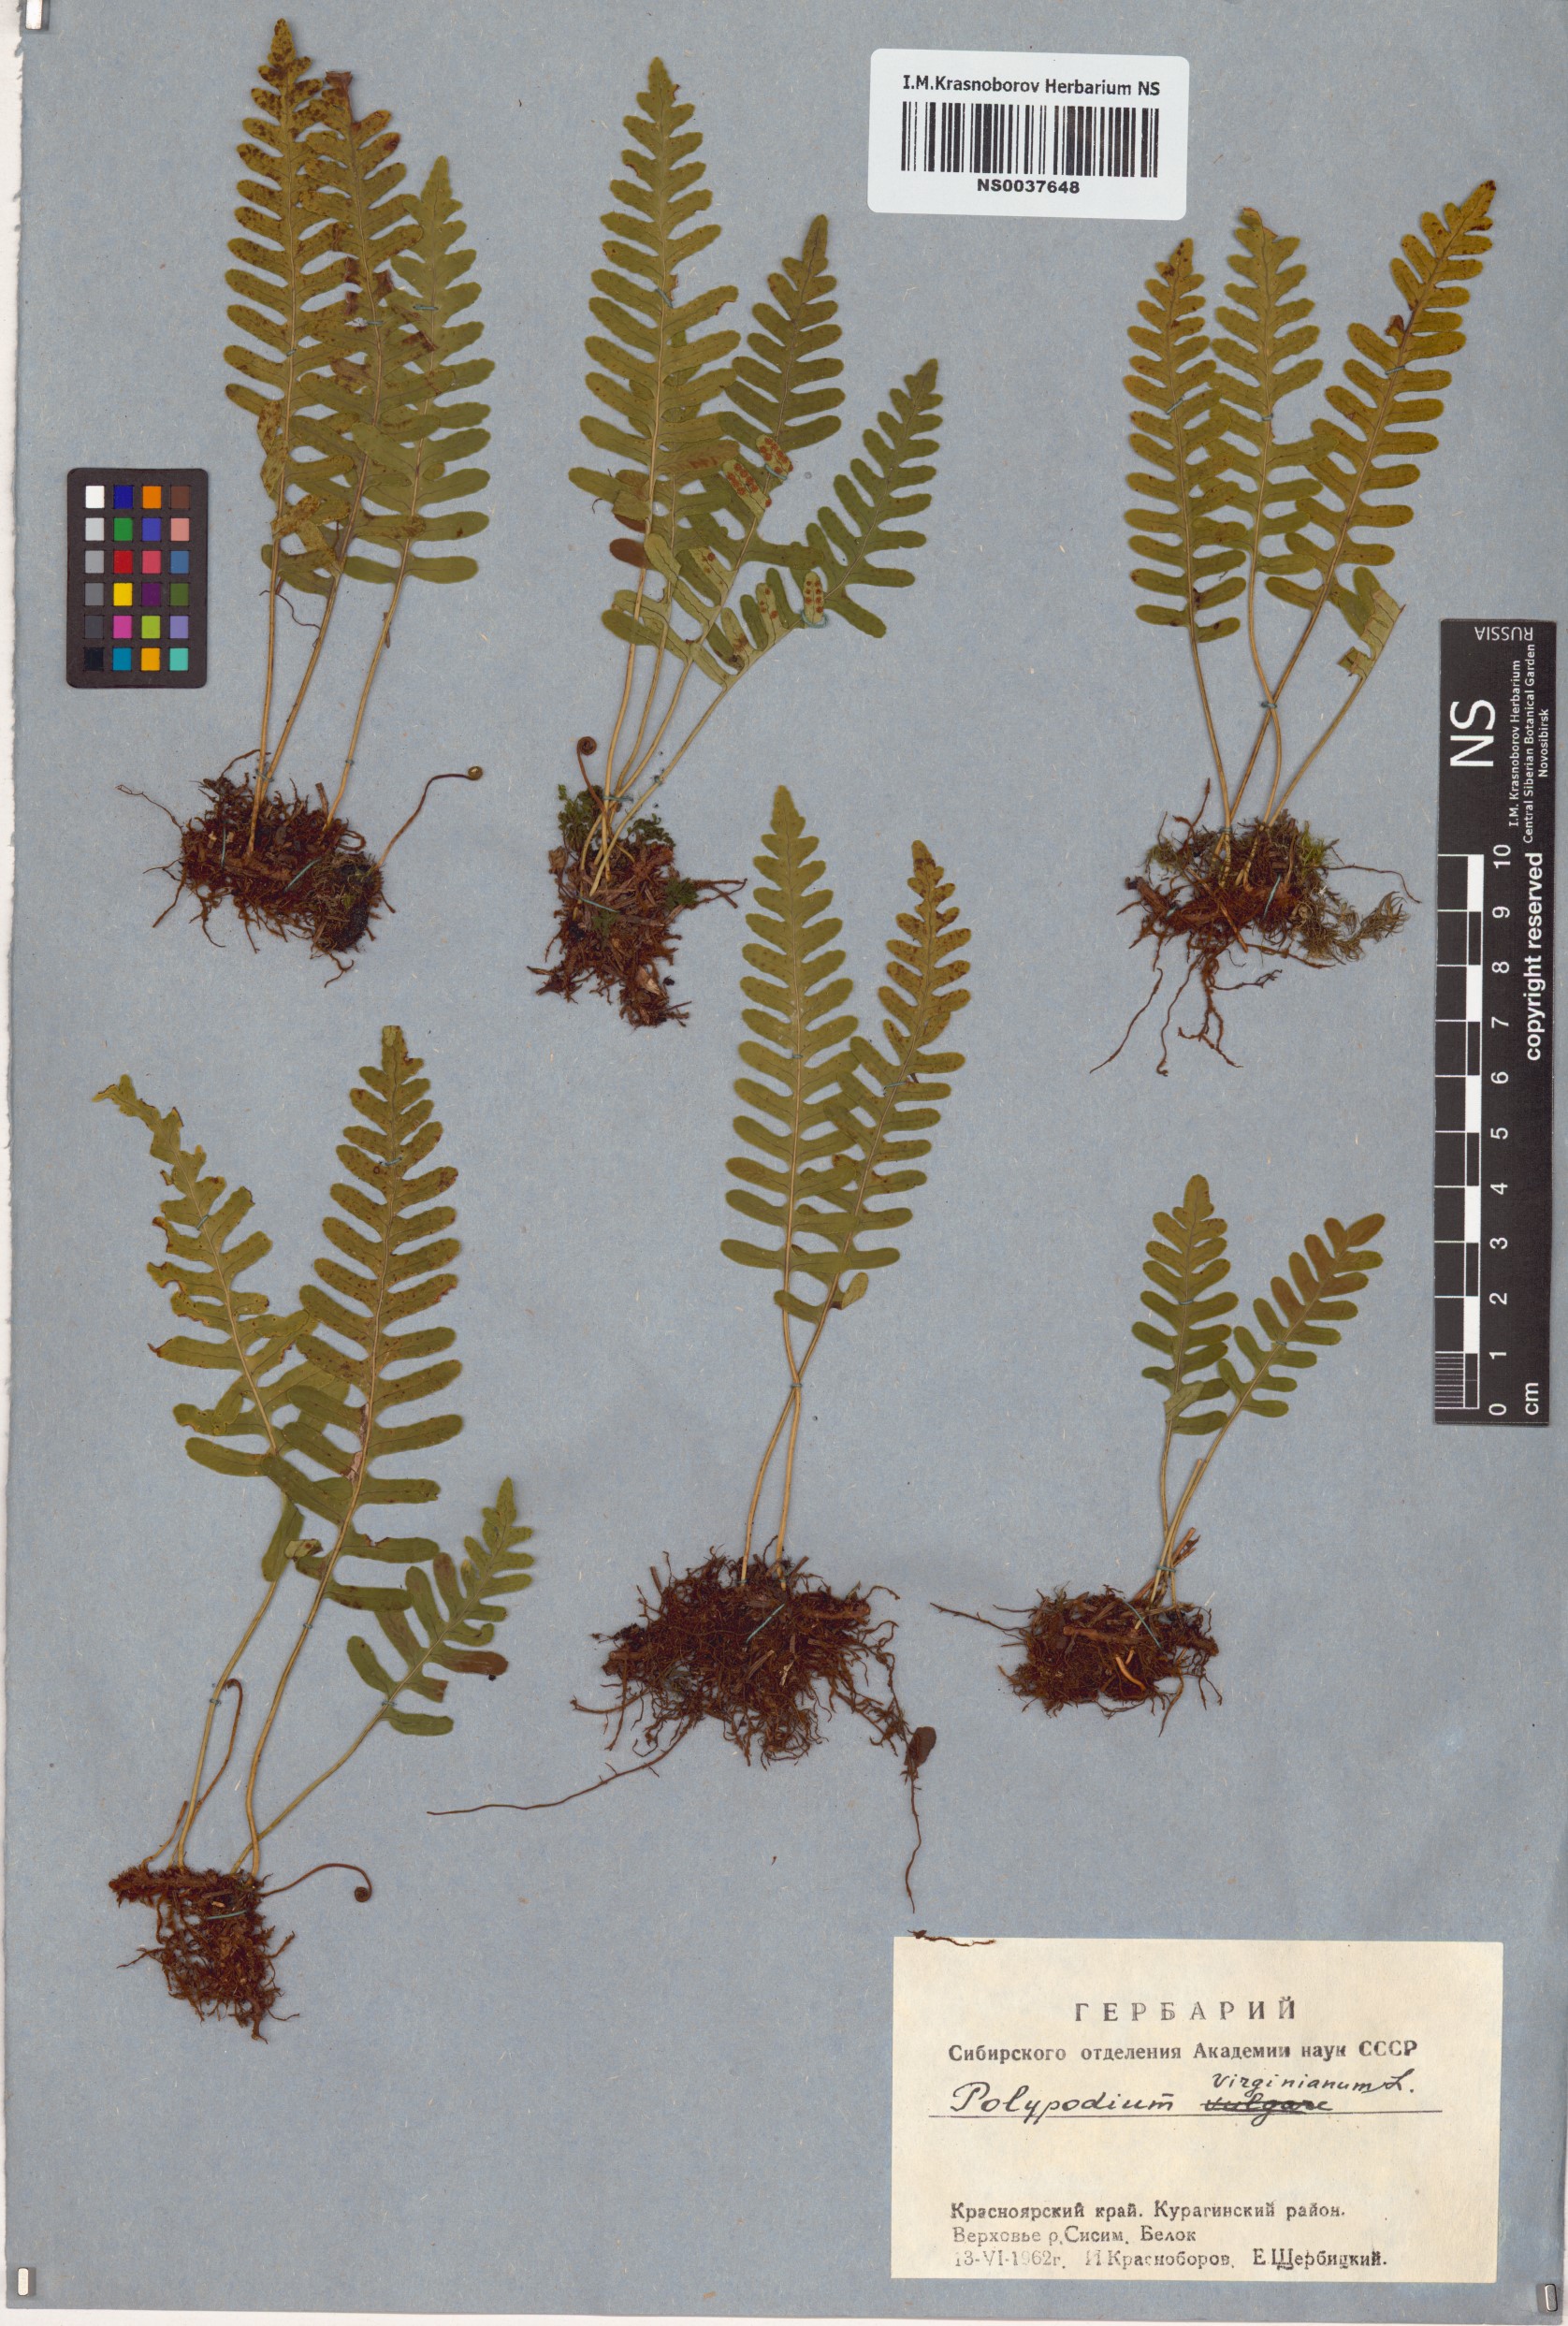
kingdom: Plantae
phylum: Tracheophyta
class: Polypodiopsida
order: Polypodiales
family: Polypodiaceae
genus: Polypodium
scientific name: Polypodium virginianum
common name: American wall fern
